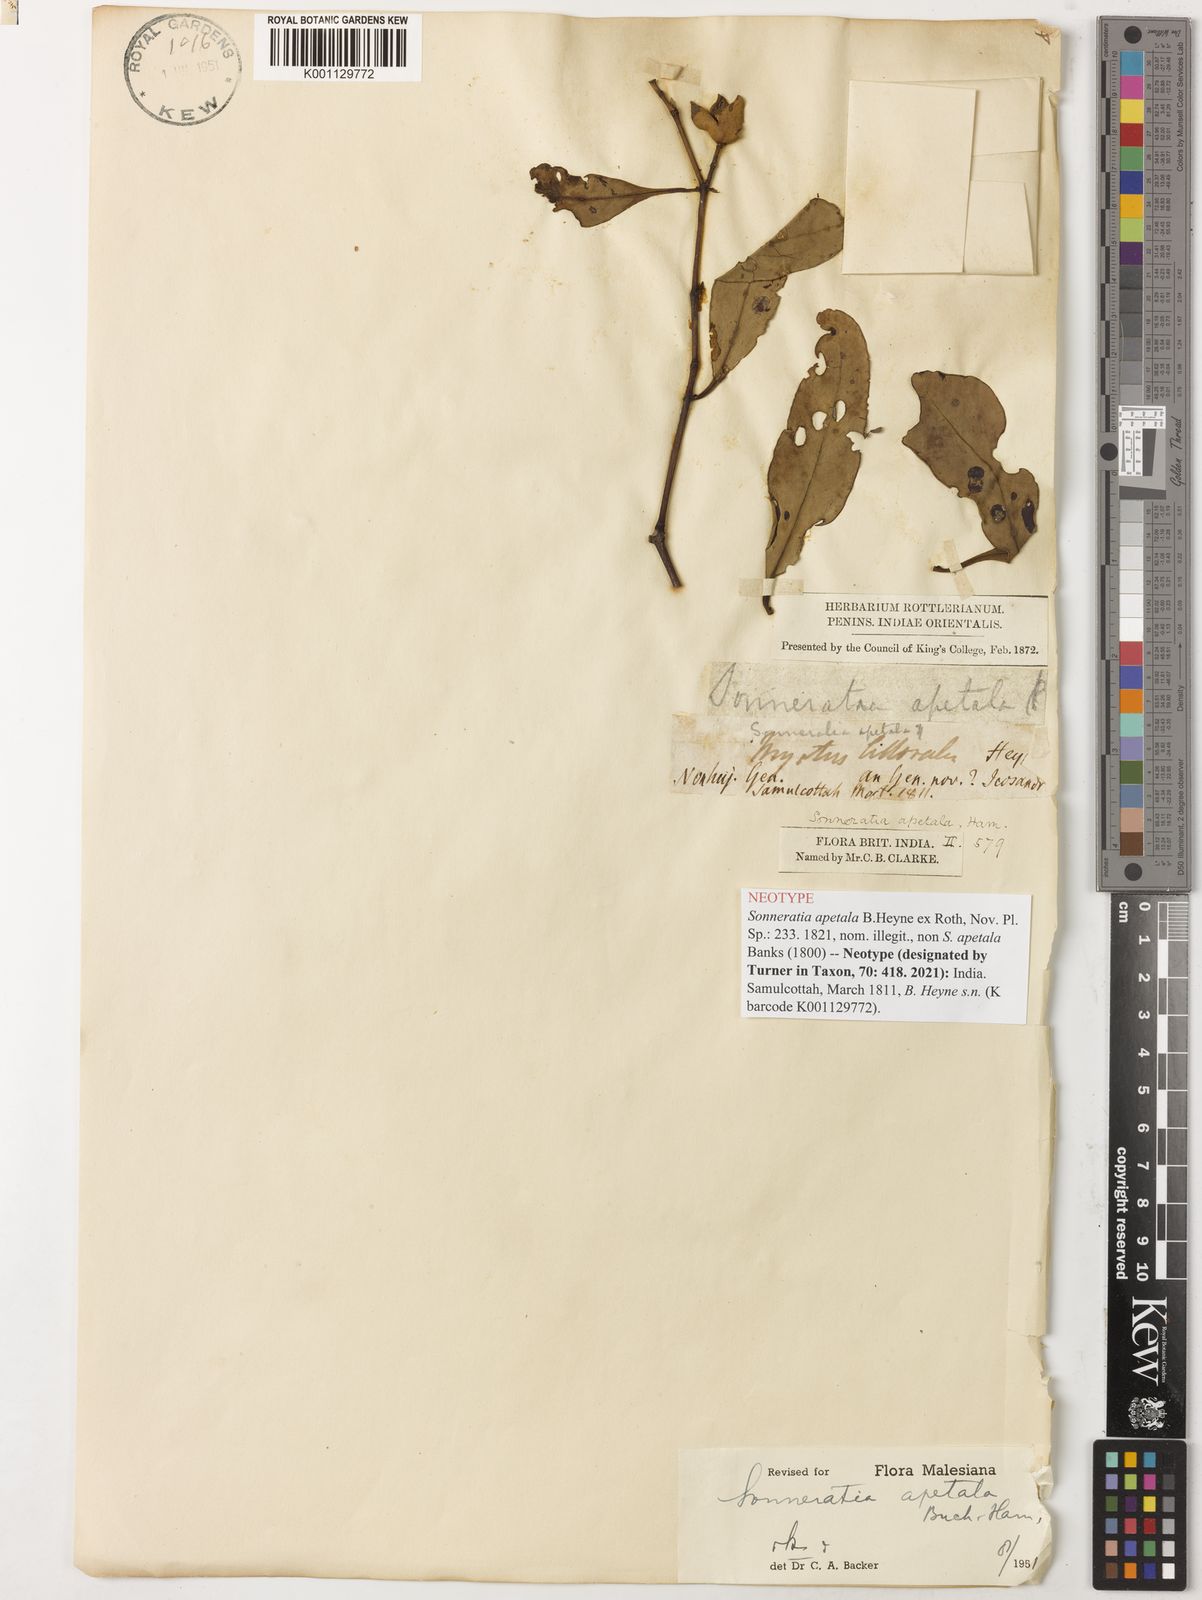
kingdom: Plantae
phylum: Tracheophyta
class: Magnoliopsida
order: Myrtales
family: Lythraceae
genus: Sonneratia
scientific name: Sonneratia
